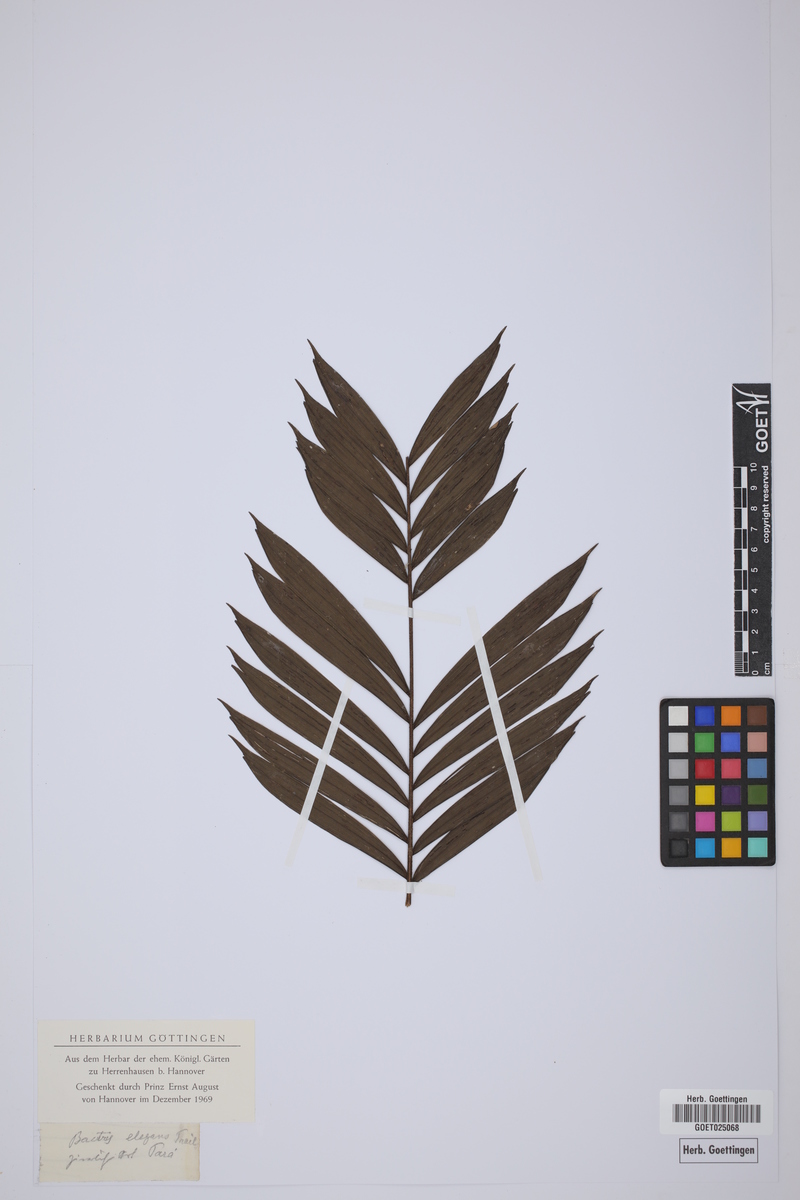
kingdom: Plantae
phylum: Tracheophyta
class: Liliopsida
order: Arecales
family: Arecaceae
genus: Bactris
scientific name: Bactris elegans
